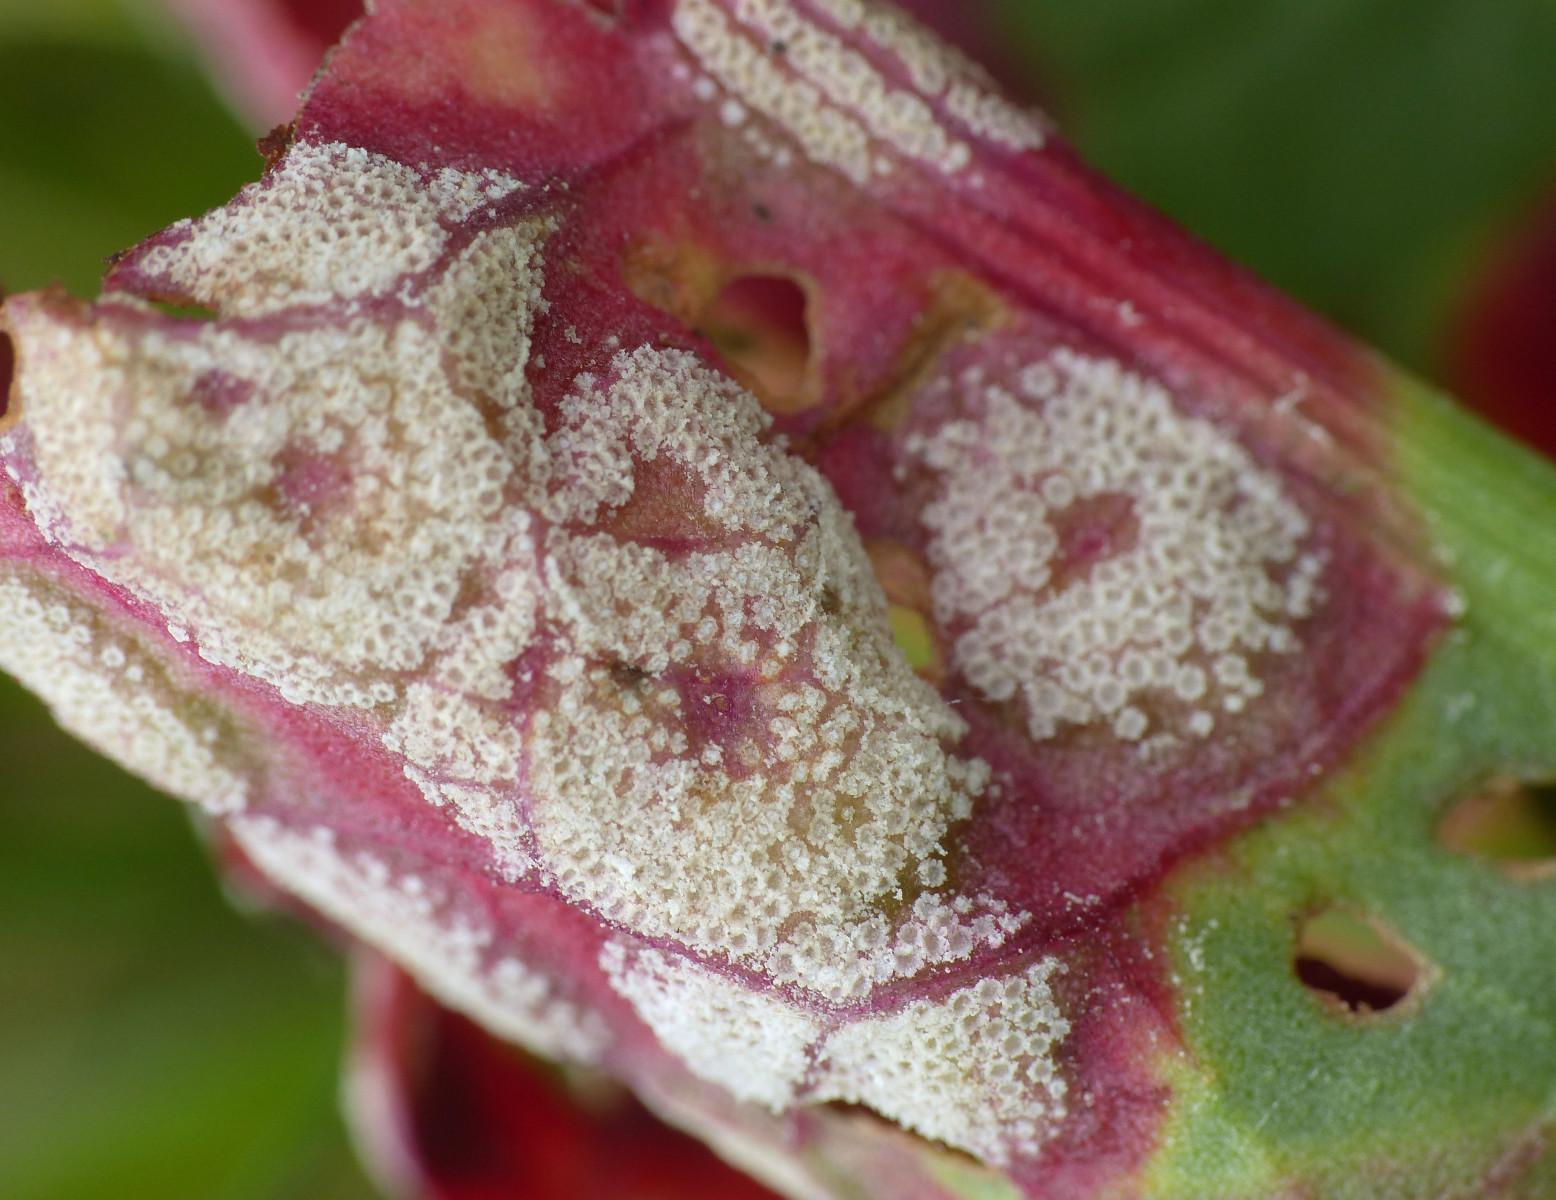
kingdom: Fungi
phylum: Basidiomycota
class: Pucciniomycetes
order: Pucciniales
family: Pucciniaceae
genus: Puccinia
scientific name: Puccinia phragmitis
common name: tagrør-tvecellerust
